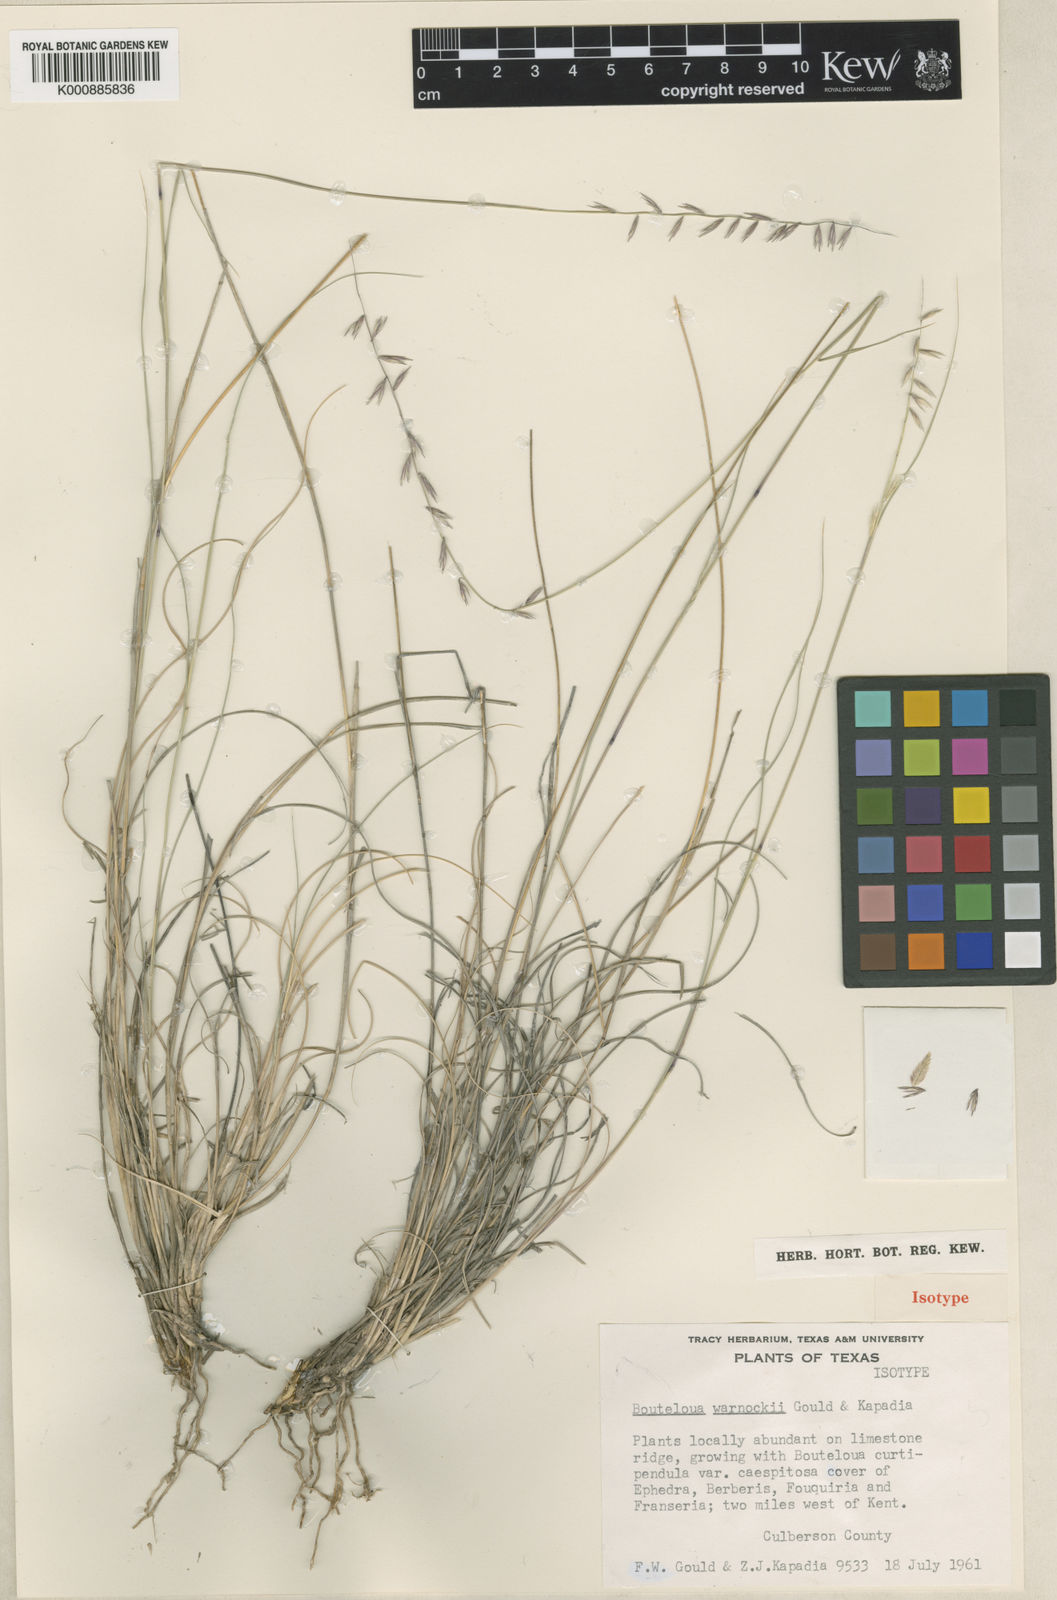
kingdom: Plantae
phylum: Tracheophyta
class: Liliopsida
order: Poales
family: Poaceae
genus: Bouteloua
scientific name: Bouteloua warnockii
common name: Warnock's grama
